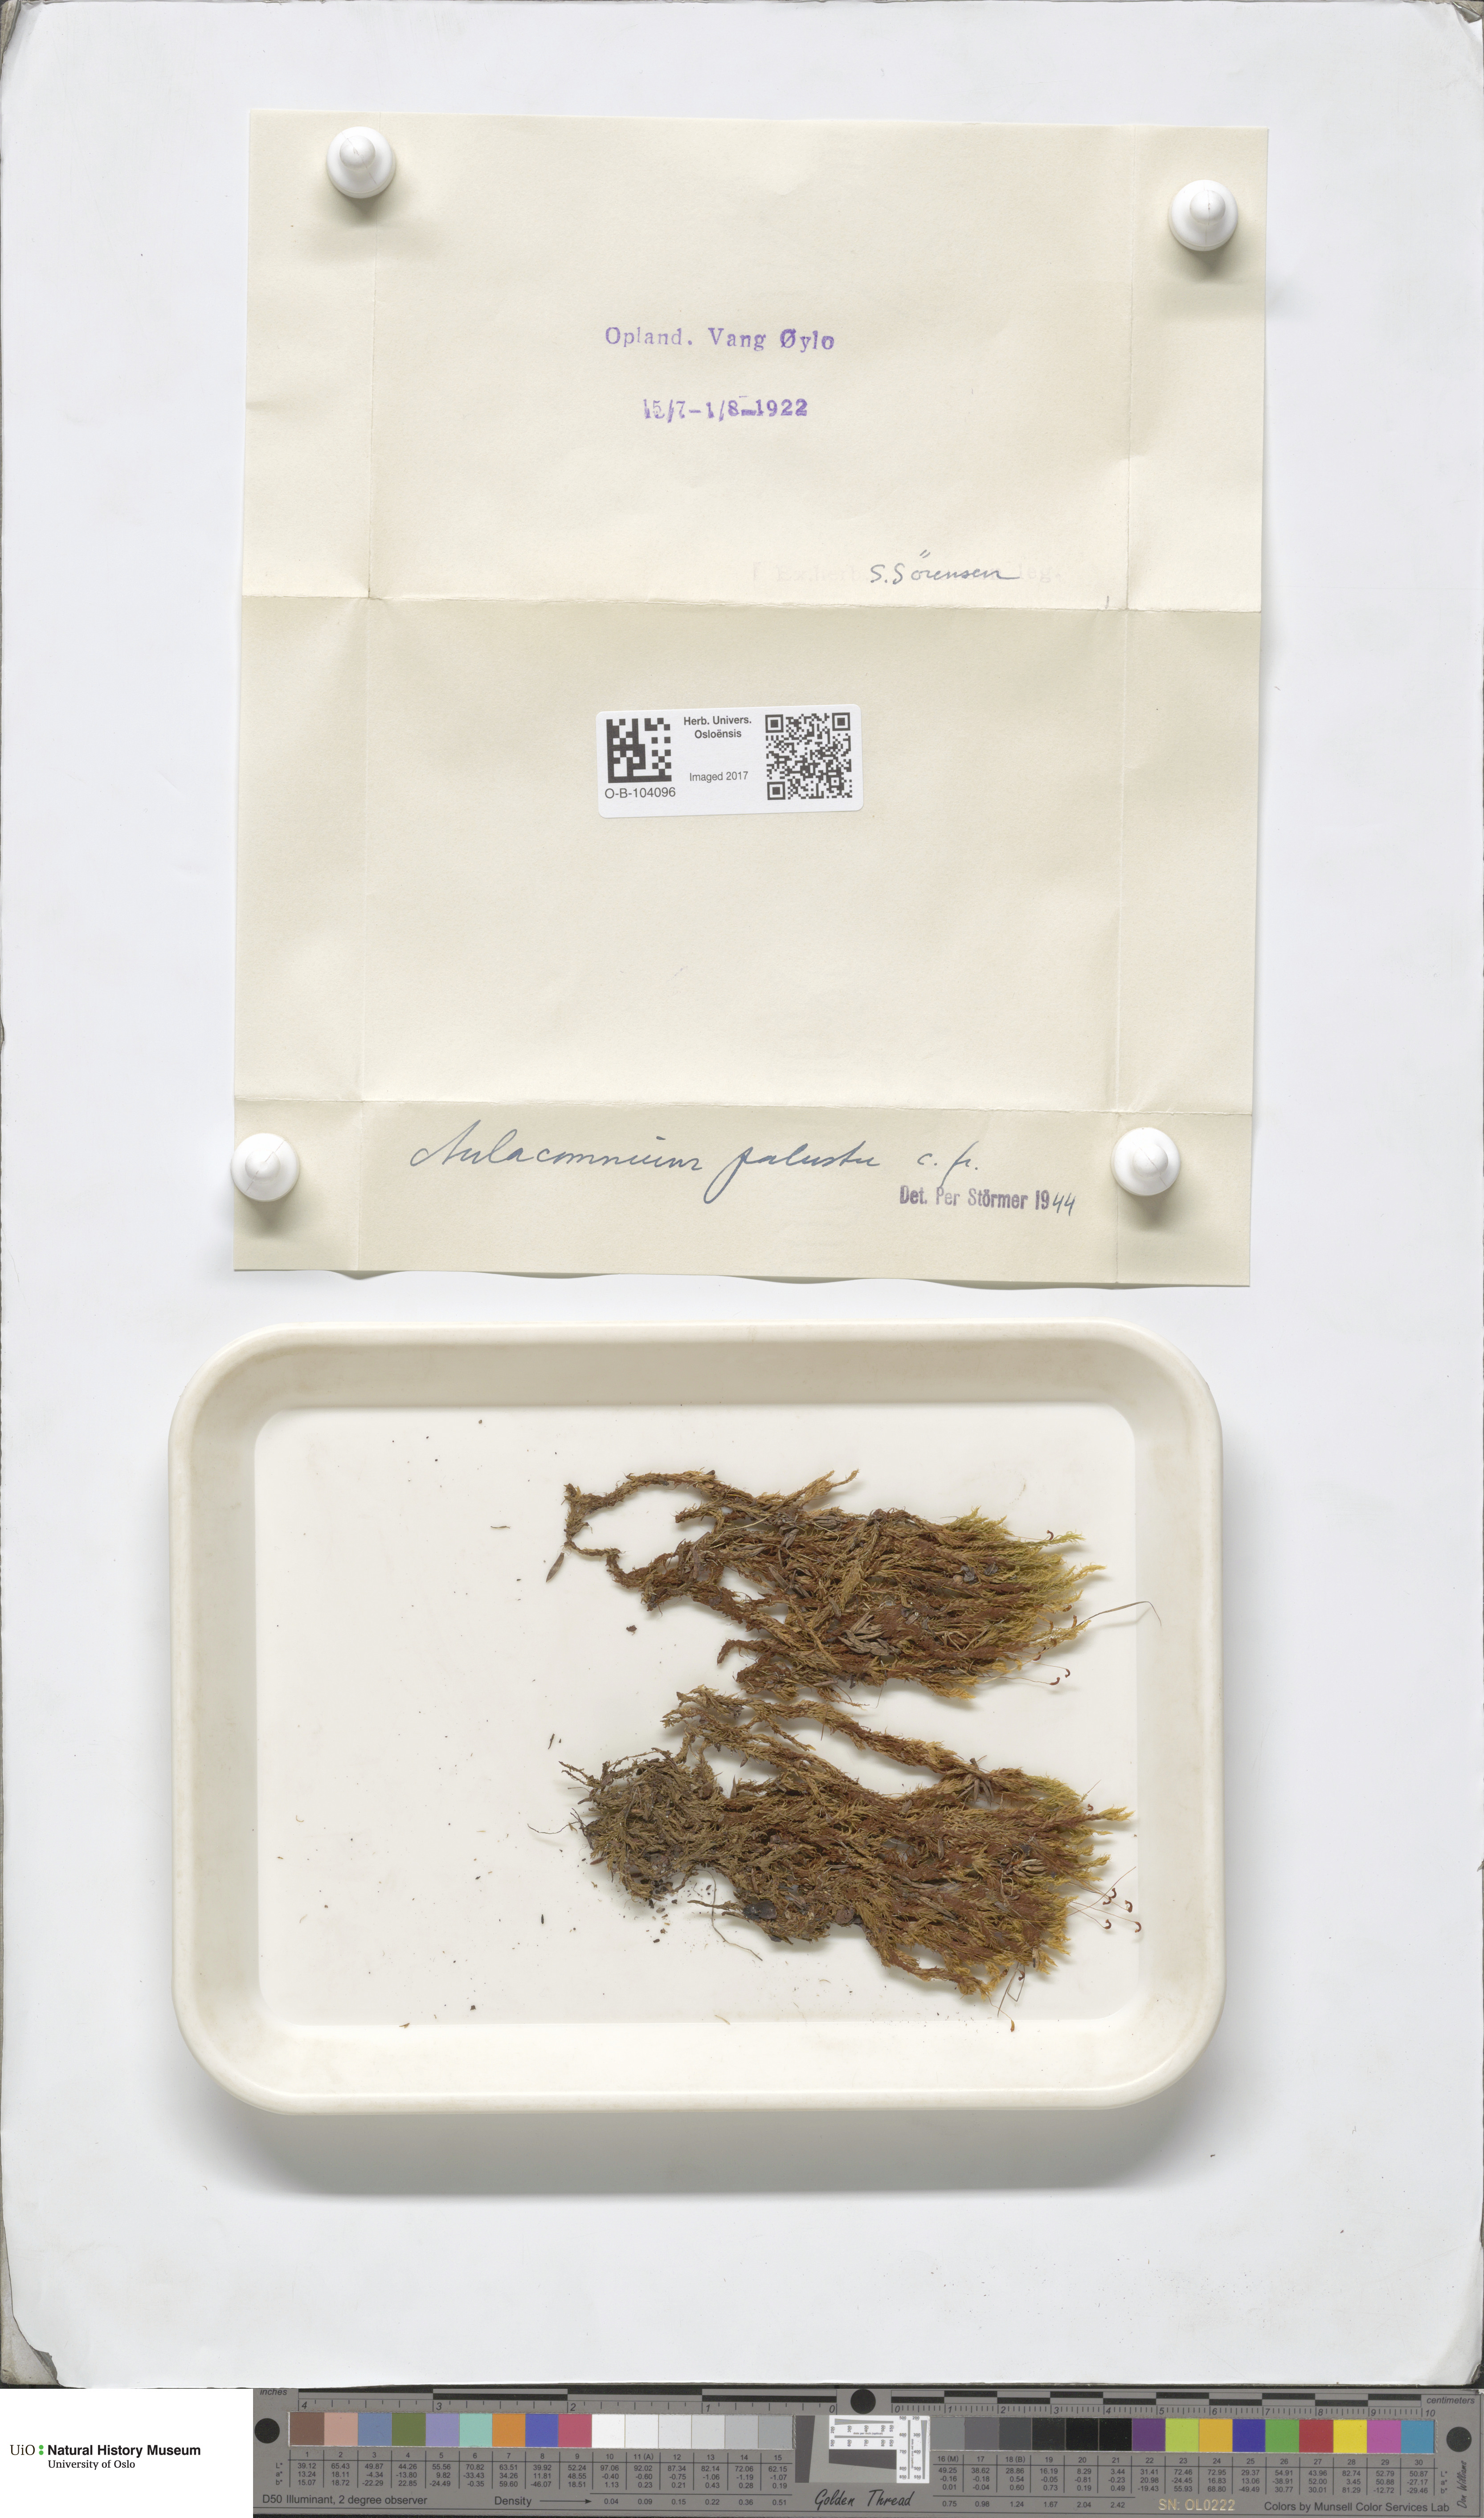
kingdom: Plantae
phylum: Bryophyta
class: Bryopsida
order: Aulacomniales
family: Aulacomniaceae
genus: Aulacomnium
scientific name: Aulacomnium palustre
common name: Bog groove-moss
